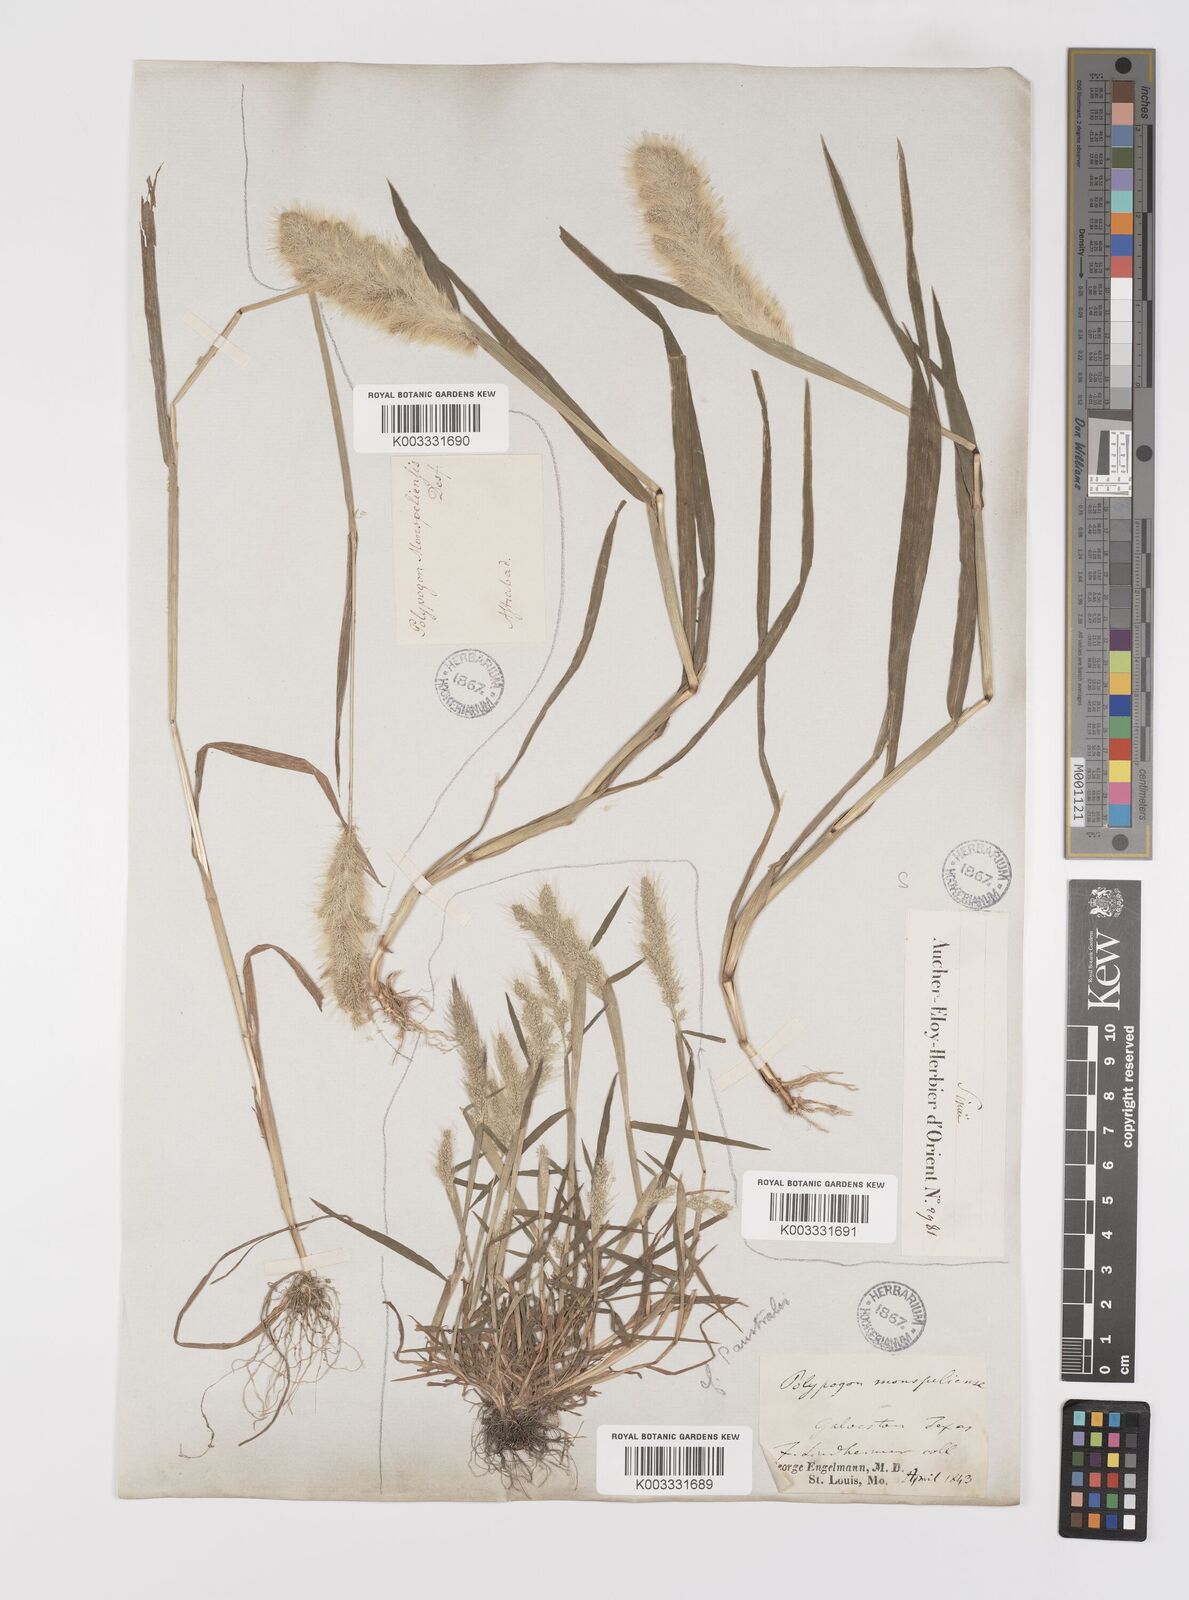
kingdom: Plantae
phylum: Tracheophyta
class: Liliopsida
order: Poales
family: Poaceae
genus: Polypogon
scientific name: Polypogon monspeliensis
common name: Annual rabbitsfoot grass
